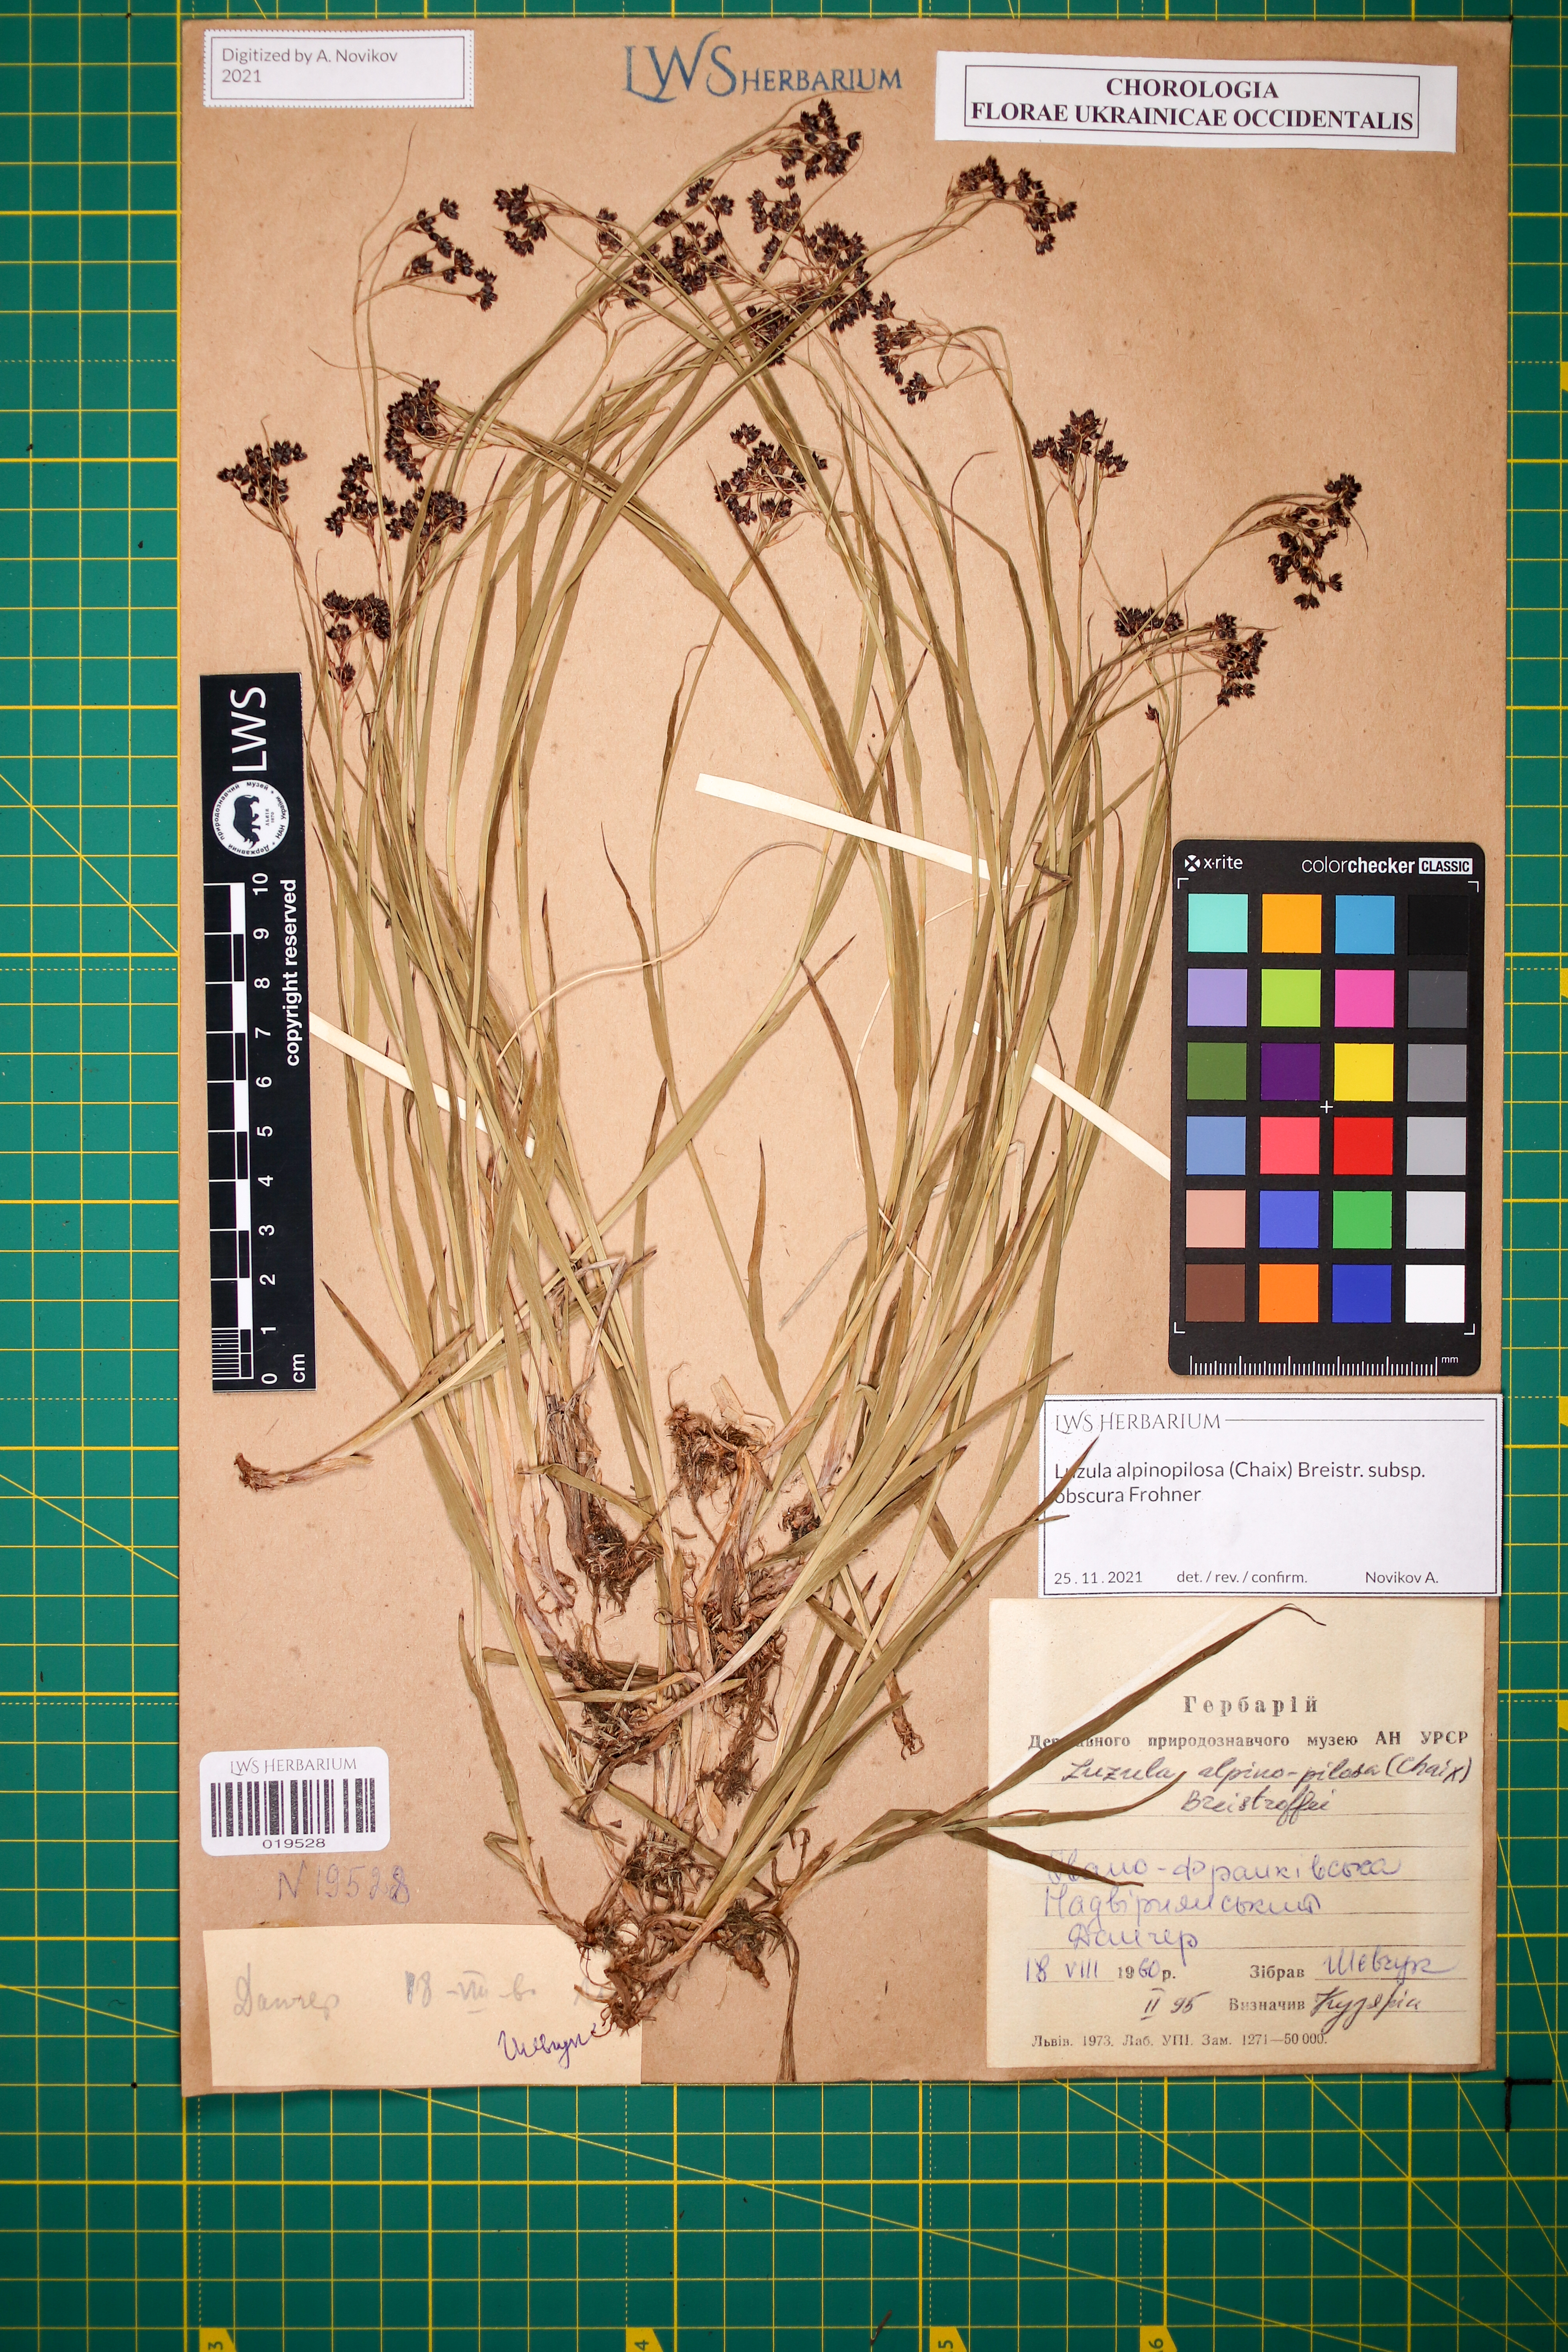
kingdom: Plantae
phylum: Tracheophyta
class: Liliopsida
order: Poales
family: Juncaceae
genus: Luzula
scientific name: Luzula alpinopilosa
